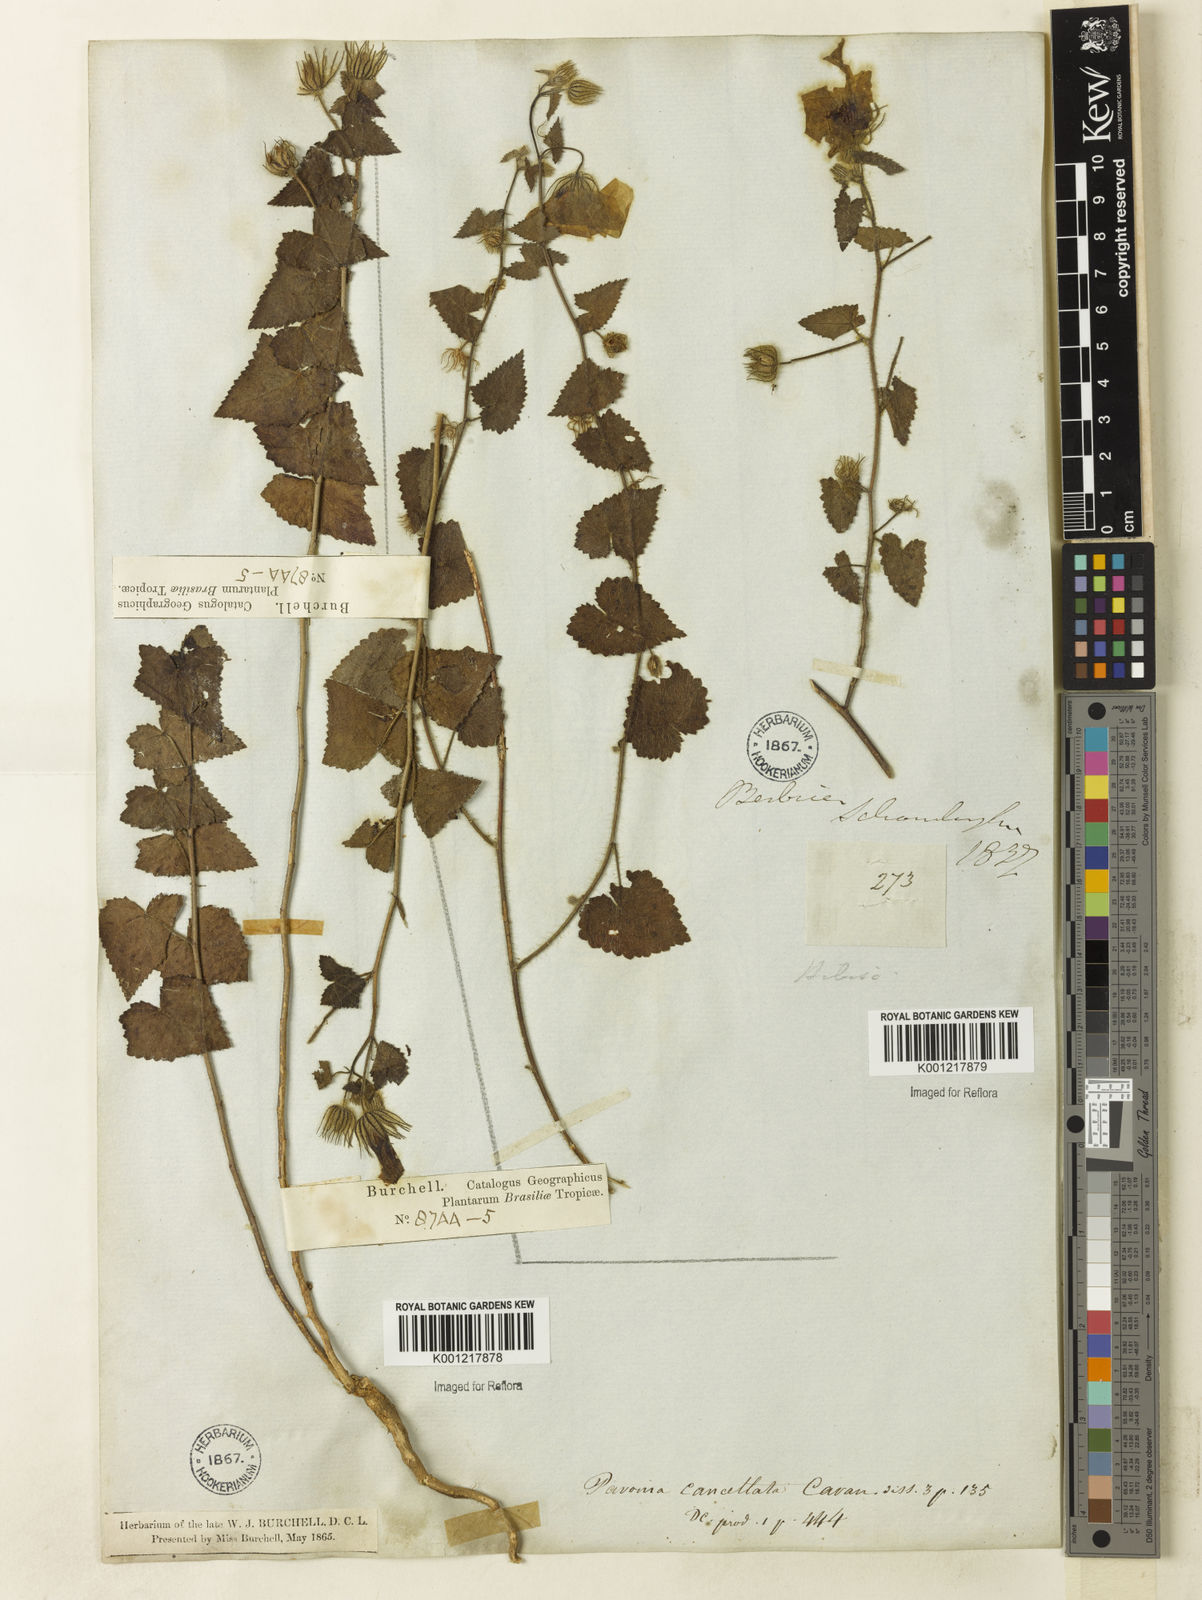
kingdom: Plantae
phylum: Tracheophyta
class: Magnoliopsida
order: Malvales
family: Malvaceae
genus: Pavonia
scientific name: Pavonia cancellata
